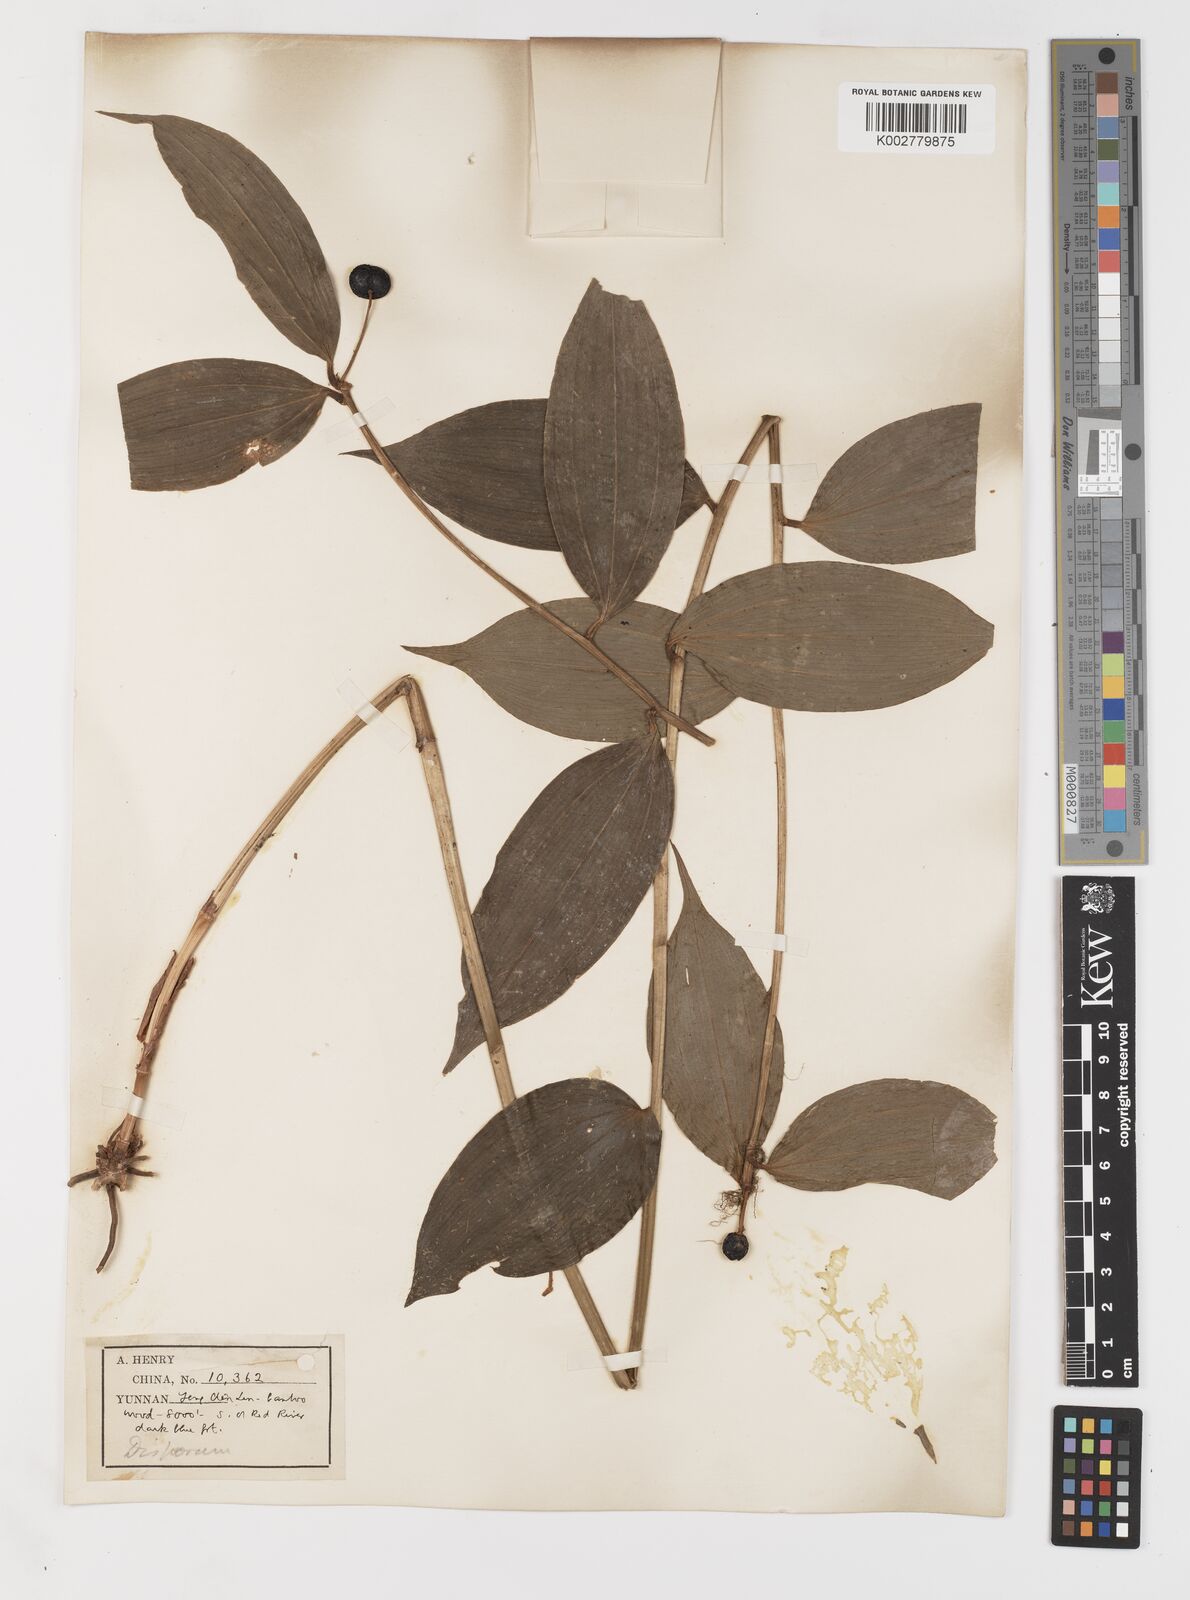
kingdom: Plantae
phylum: Tracheophyta
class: Liliopsida
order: Liliales
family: Colchicaceae
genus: Disporum
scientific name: Disporum
